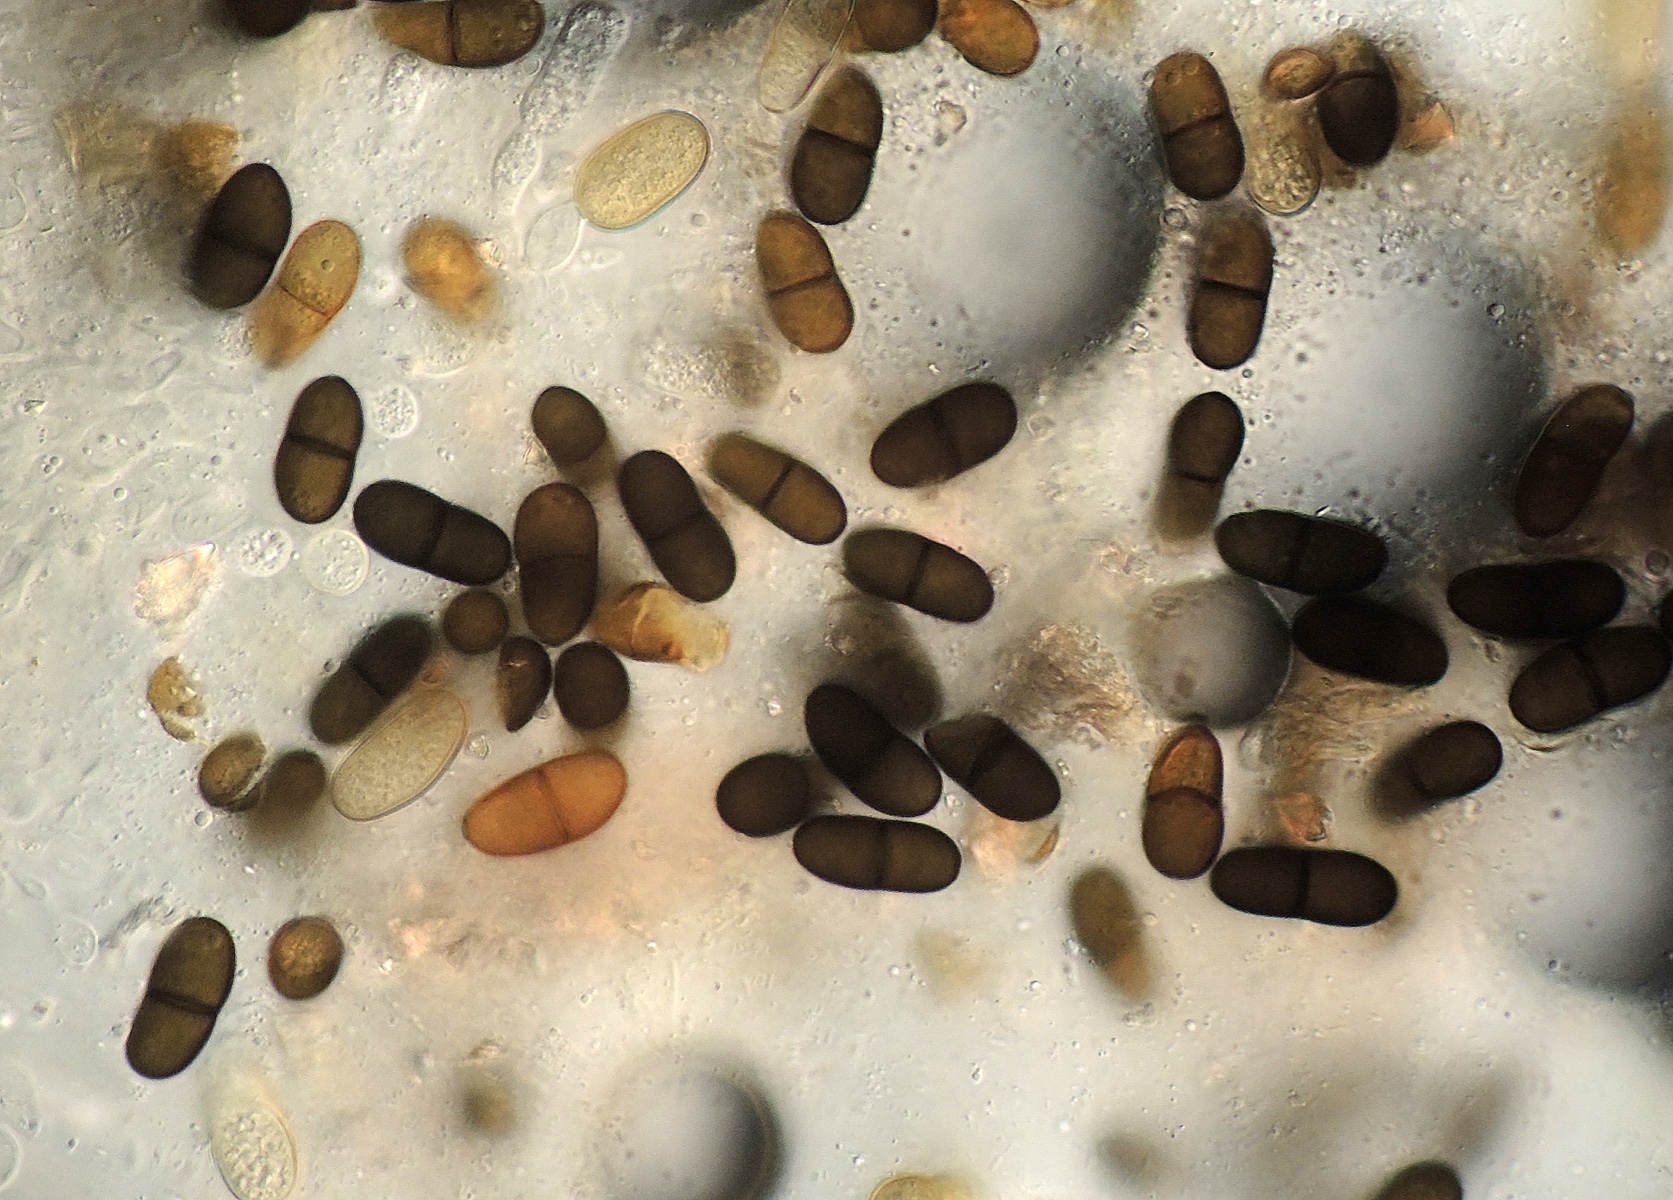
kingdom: Fungi
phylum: Ascomycota
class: Dothideomycetes
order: Botryosphaeriales
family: Botryosphaeriaceae
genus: Diplodia
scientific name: Diplodia sambucina
